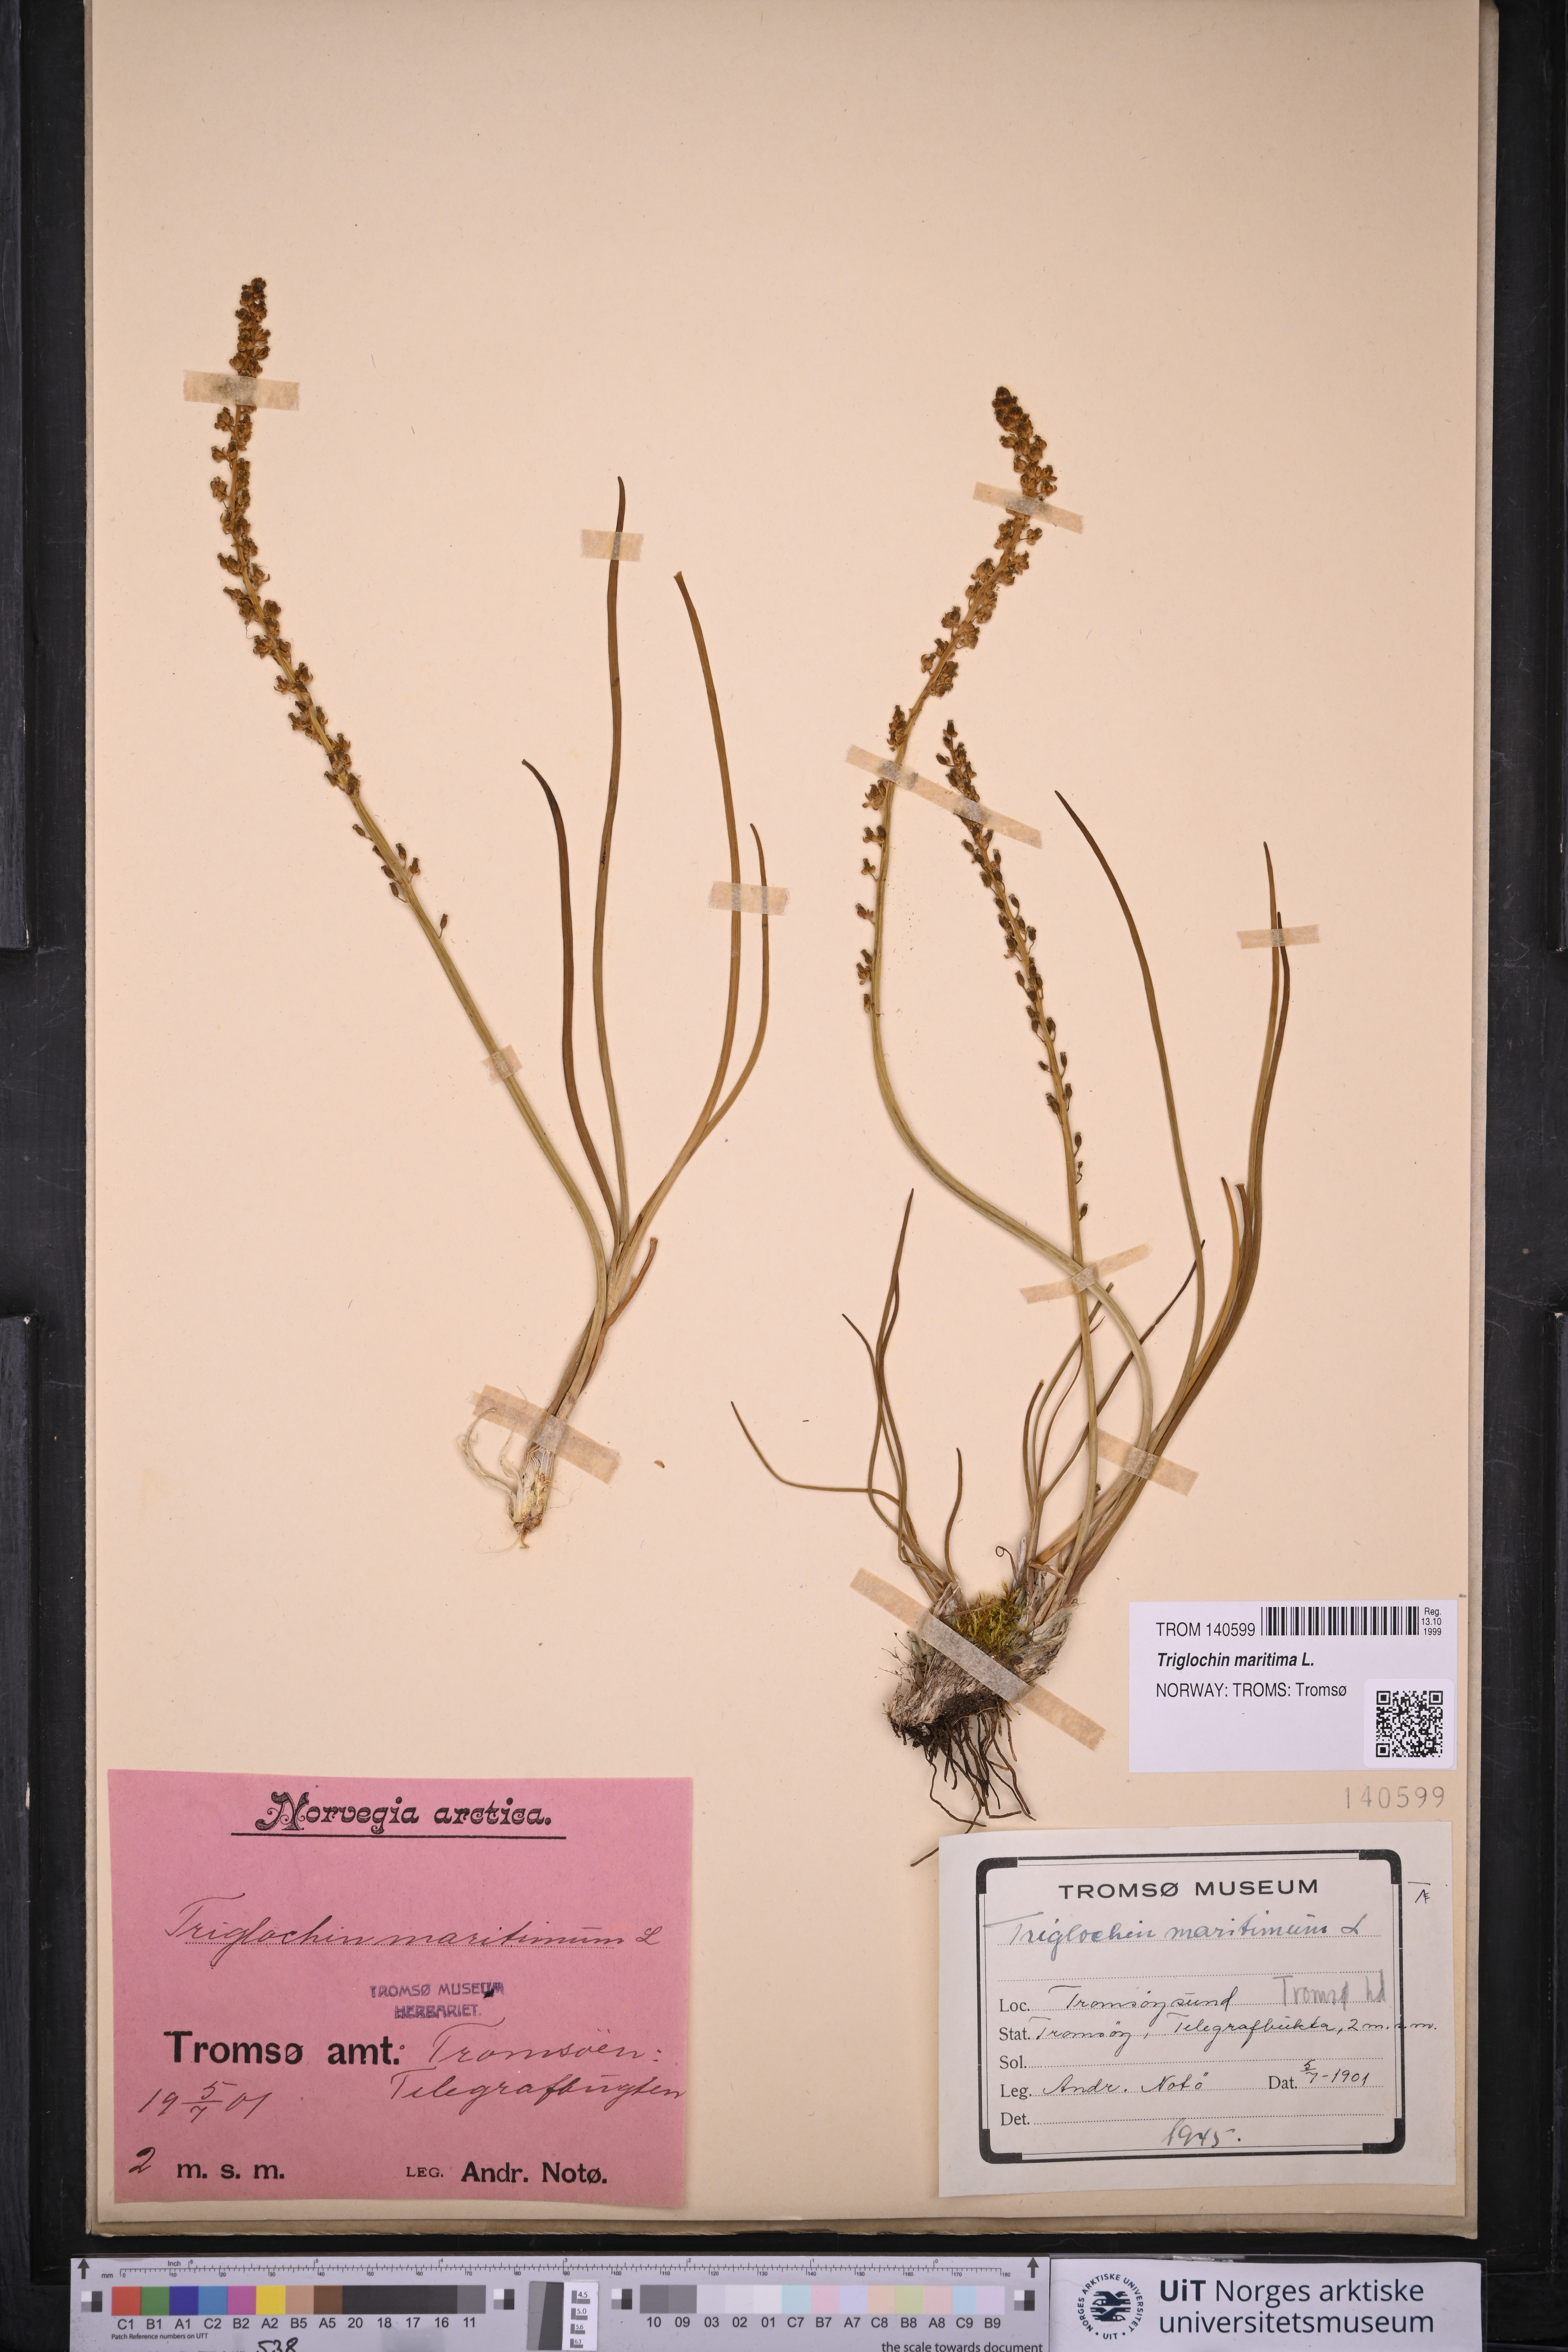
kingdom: Plantae
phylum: Tracheophyta
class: Liliopsida
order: Alismatales
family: Juncaginaceae
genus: Triglochin
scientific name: Triglochin maritima
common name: Sea arrowgrass
